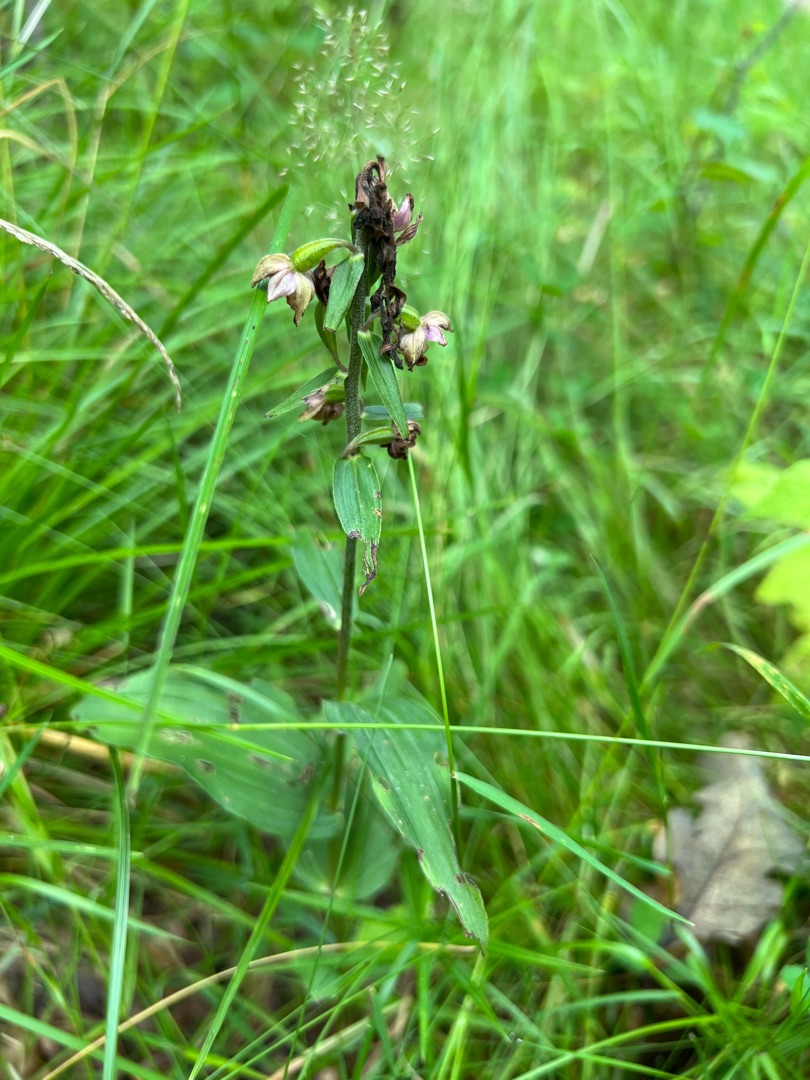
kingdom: Plantae
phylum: Tracheophyta
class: Liliopsida
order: Asparagales
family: Orchidaceae
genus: Epipactis
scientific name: Epipactis helleborine
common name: Skov-hullæbe
